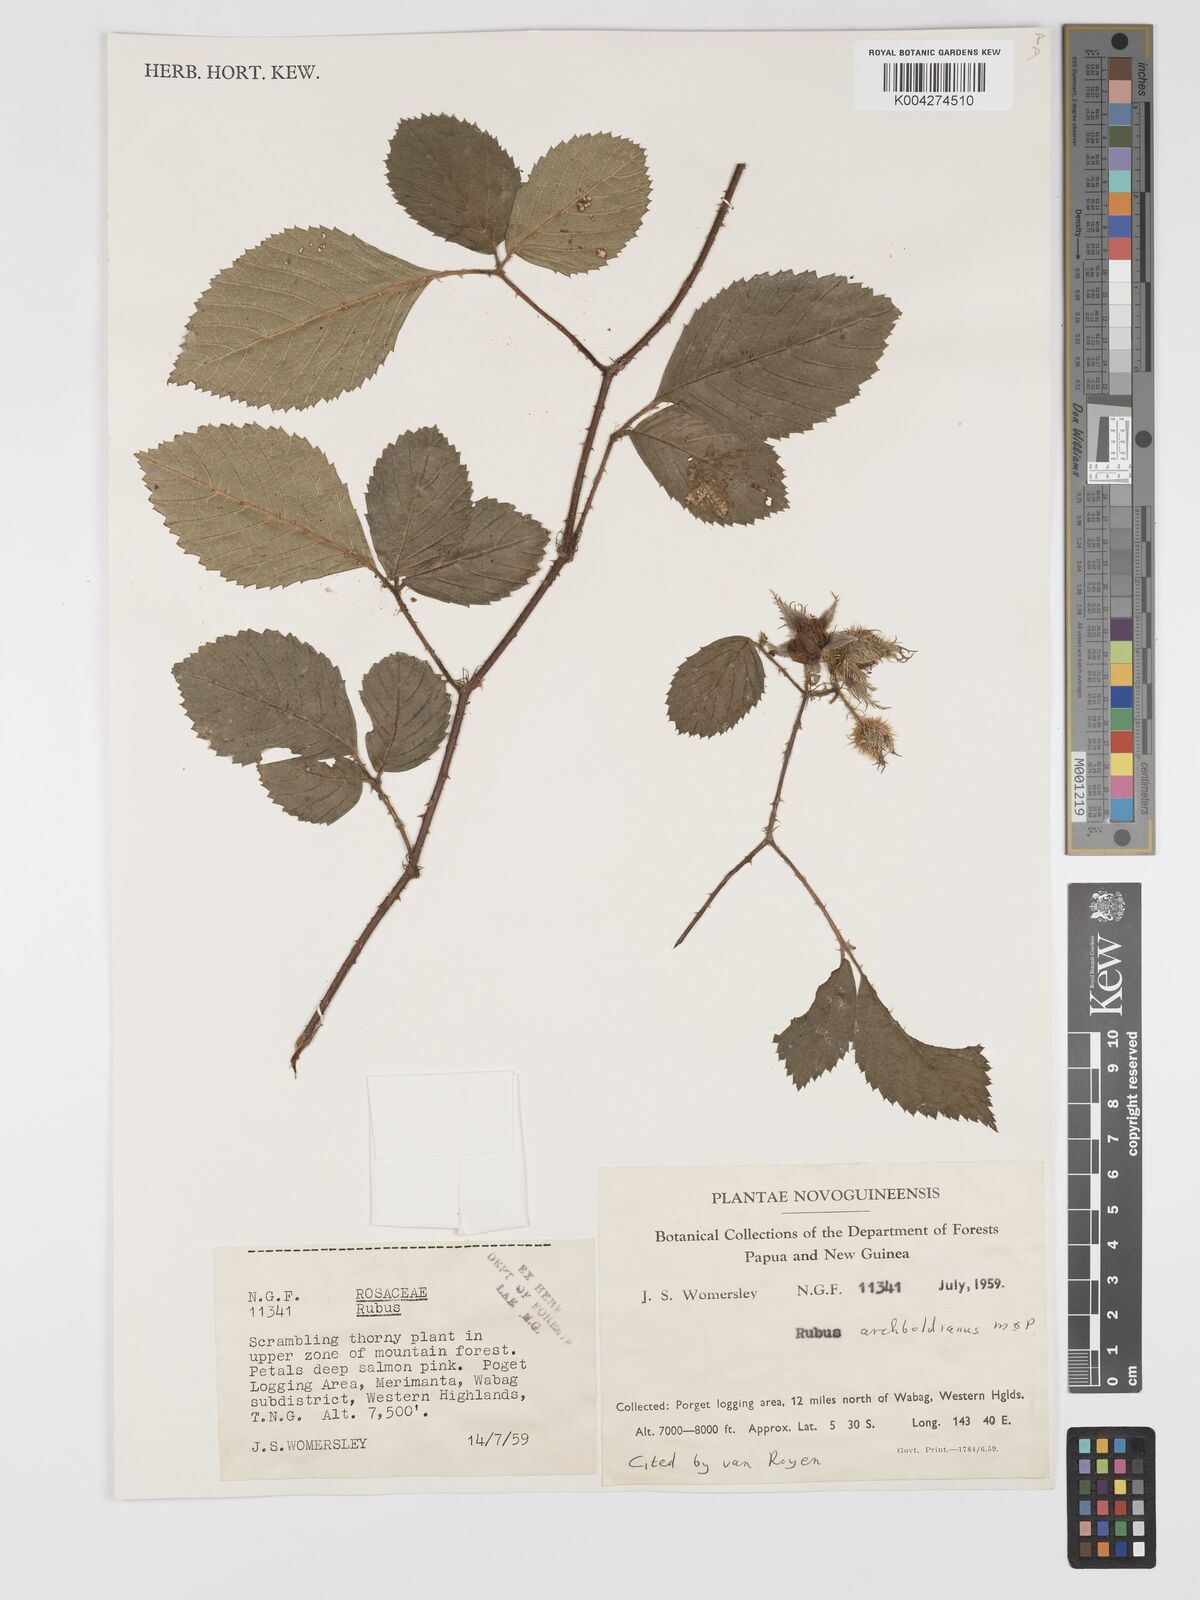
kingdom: Plantae
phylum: Tracheophyta
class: Magnoliopsida
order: Rosales
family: Rosaceae
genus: Rubus
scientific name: Rubus archboldianus
